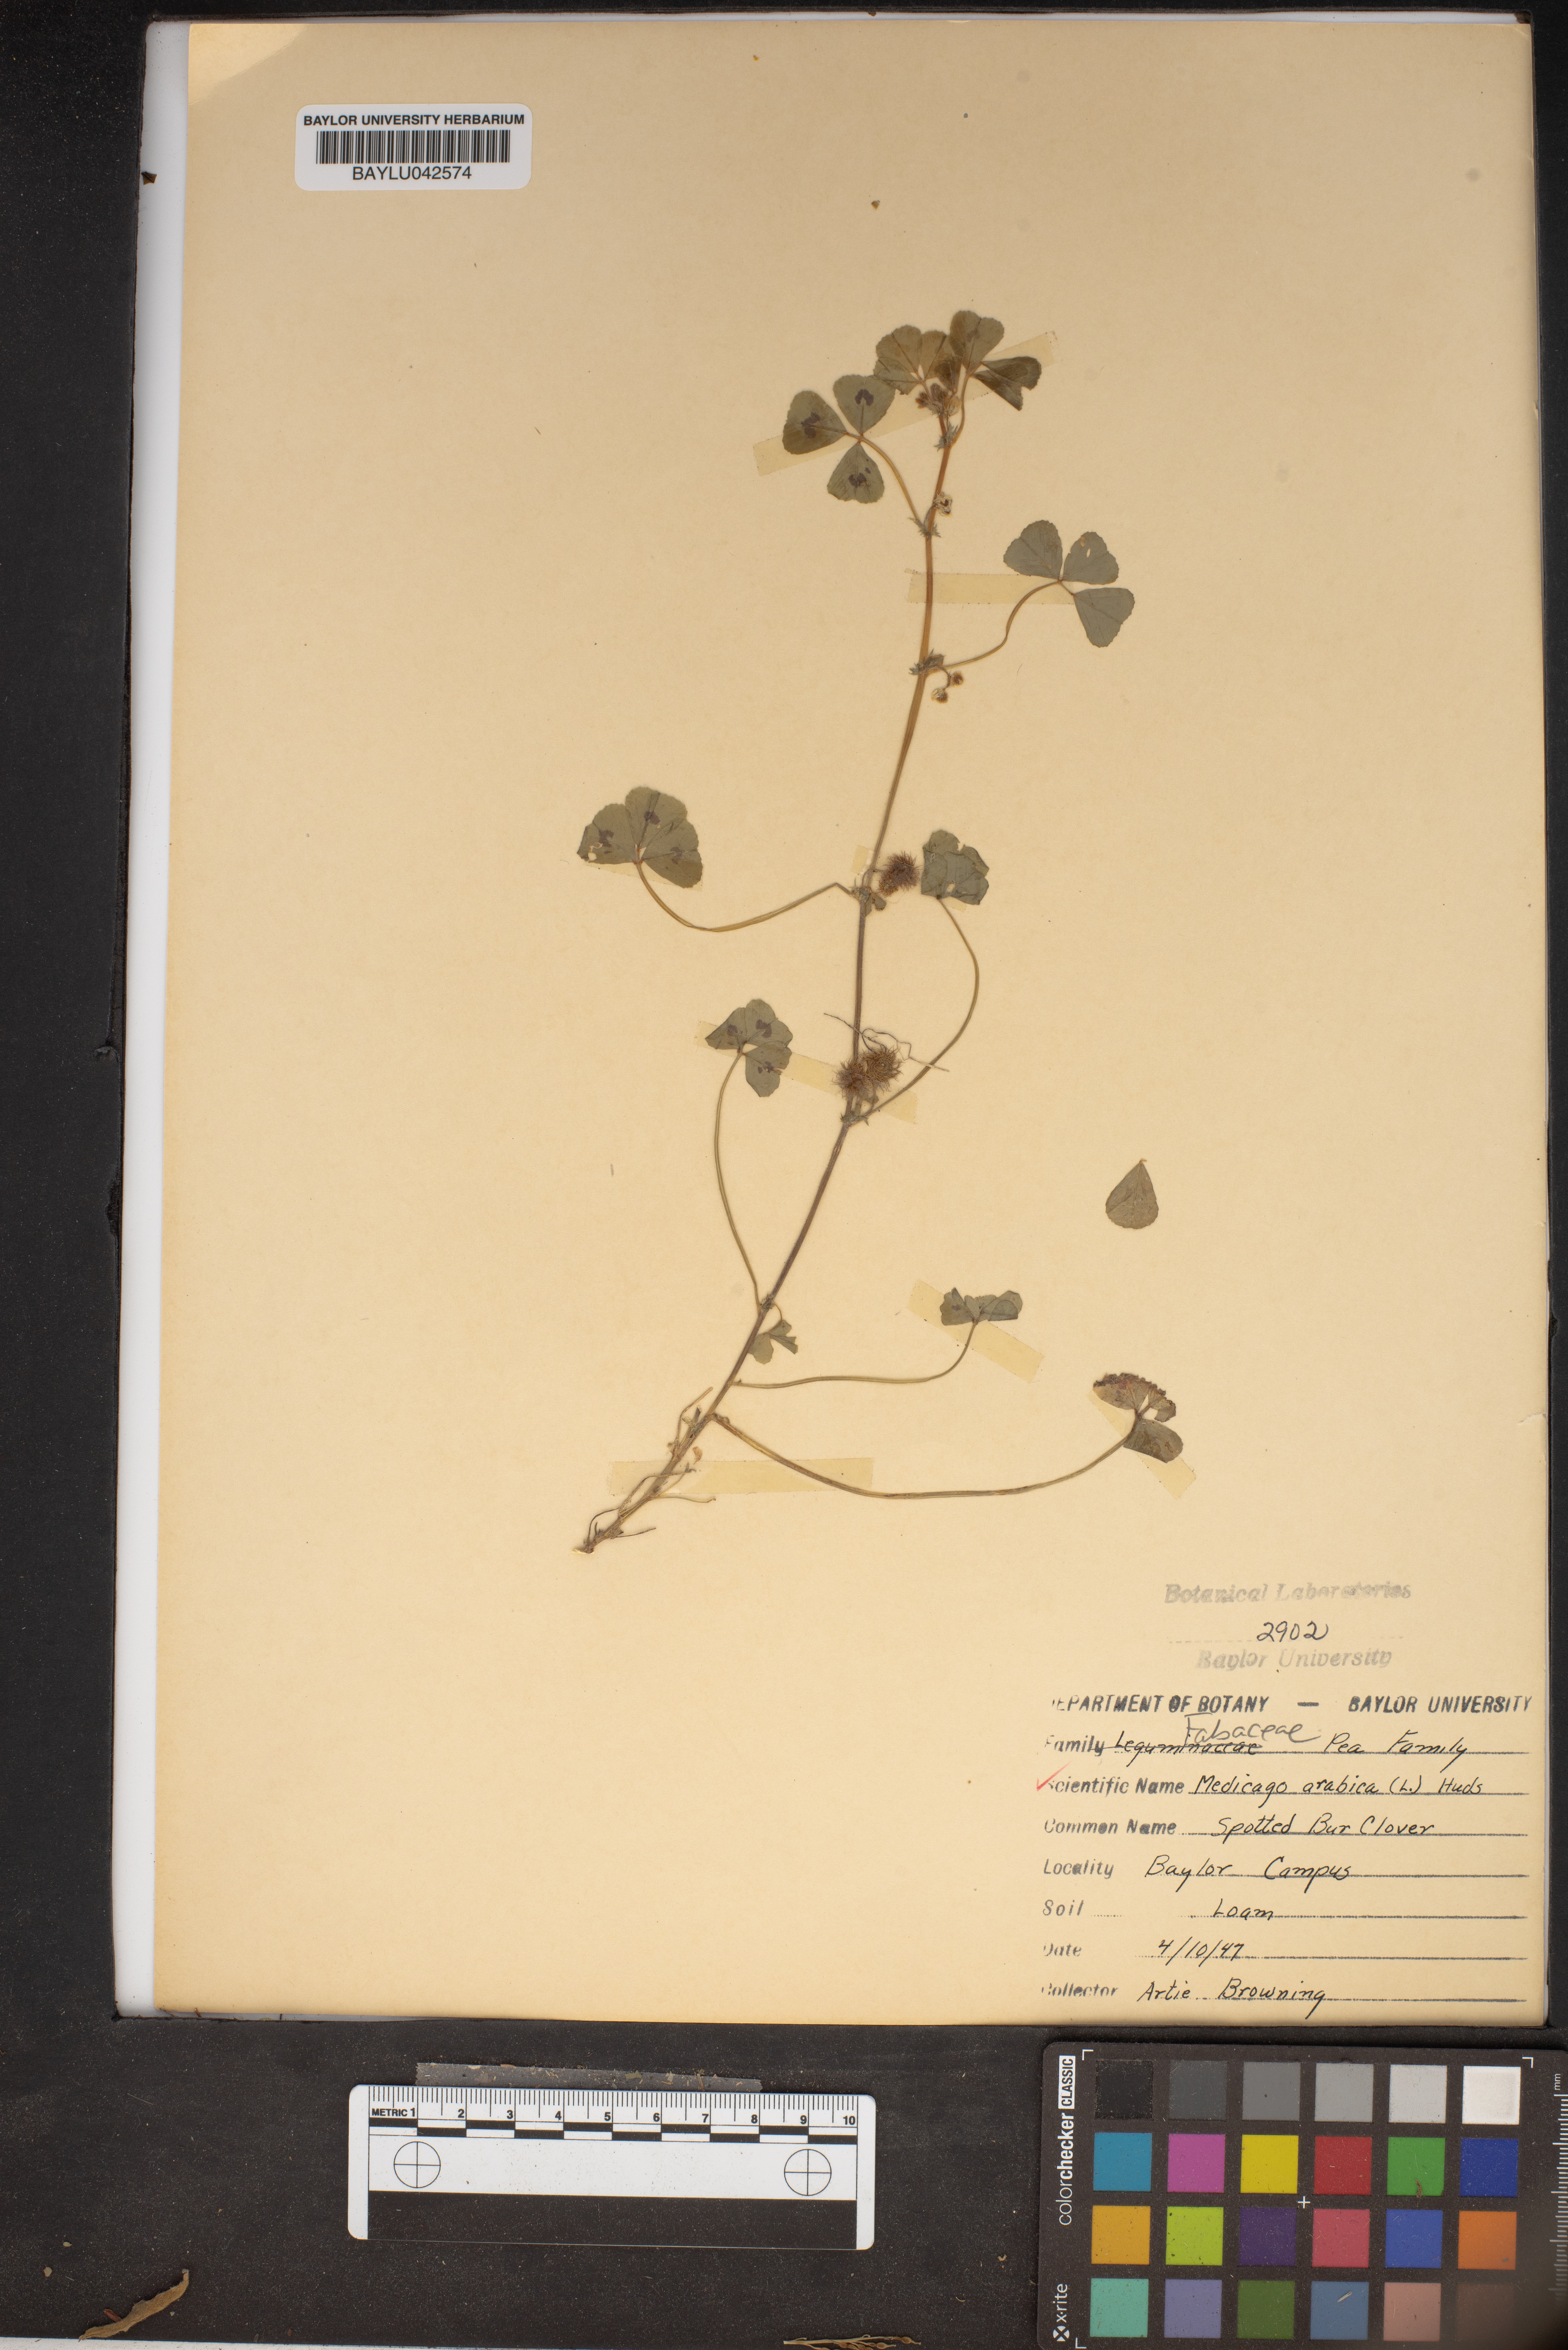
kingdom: Plantae
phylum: Tracheophyta
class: Magnoliopsida
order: Fabales
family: Fabaceae
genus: Medicago
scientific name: Medicago arabica
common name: Spotted medick
